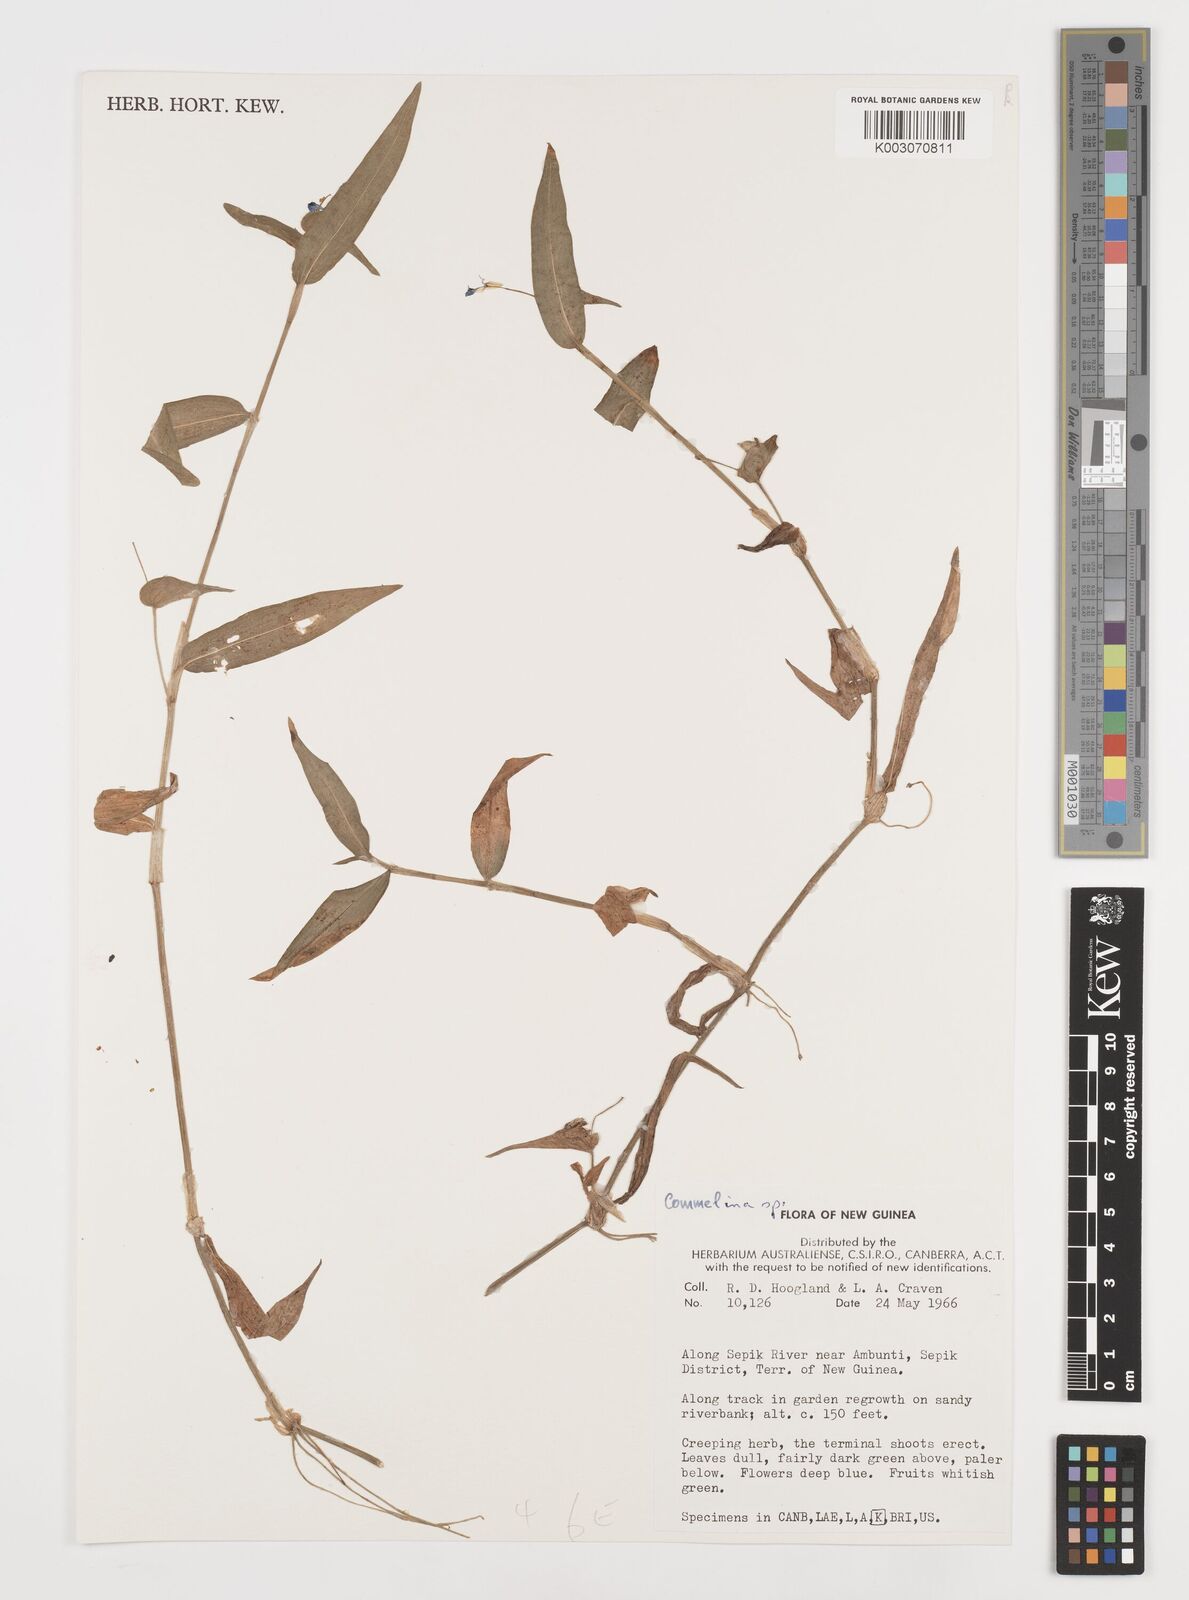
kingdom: Plantae
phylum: Tracheophyta
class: Liliopsida
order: Commelinales
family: Commelinaceae
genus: Commelina
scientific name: Commelina
